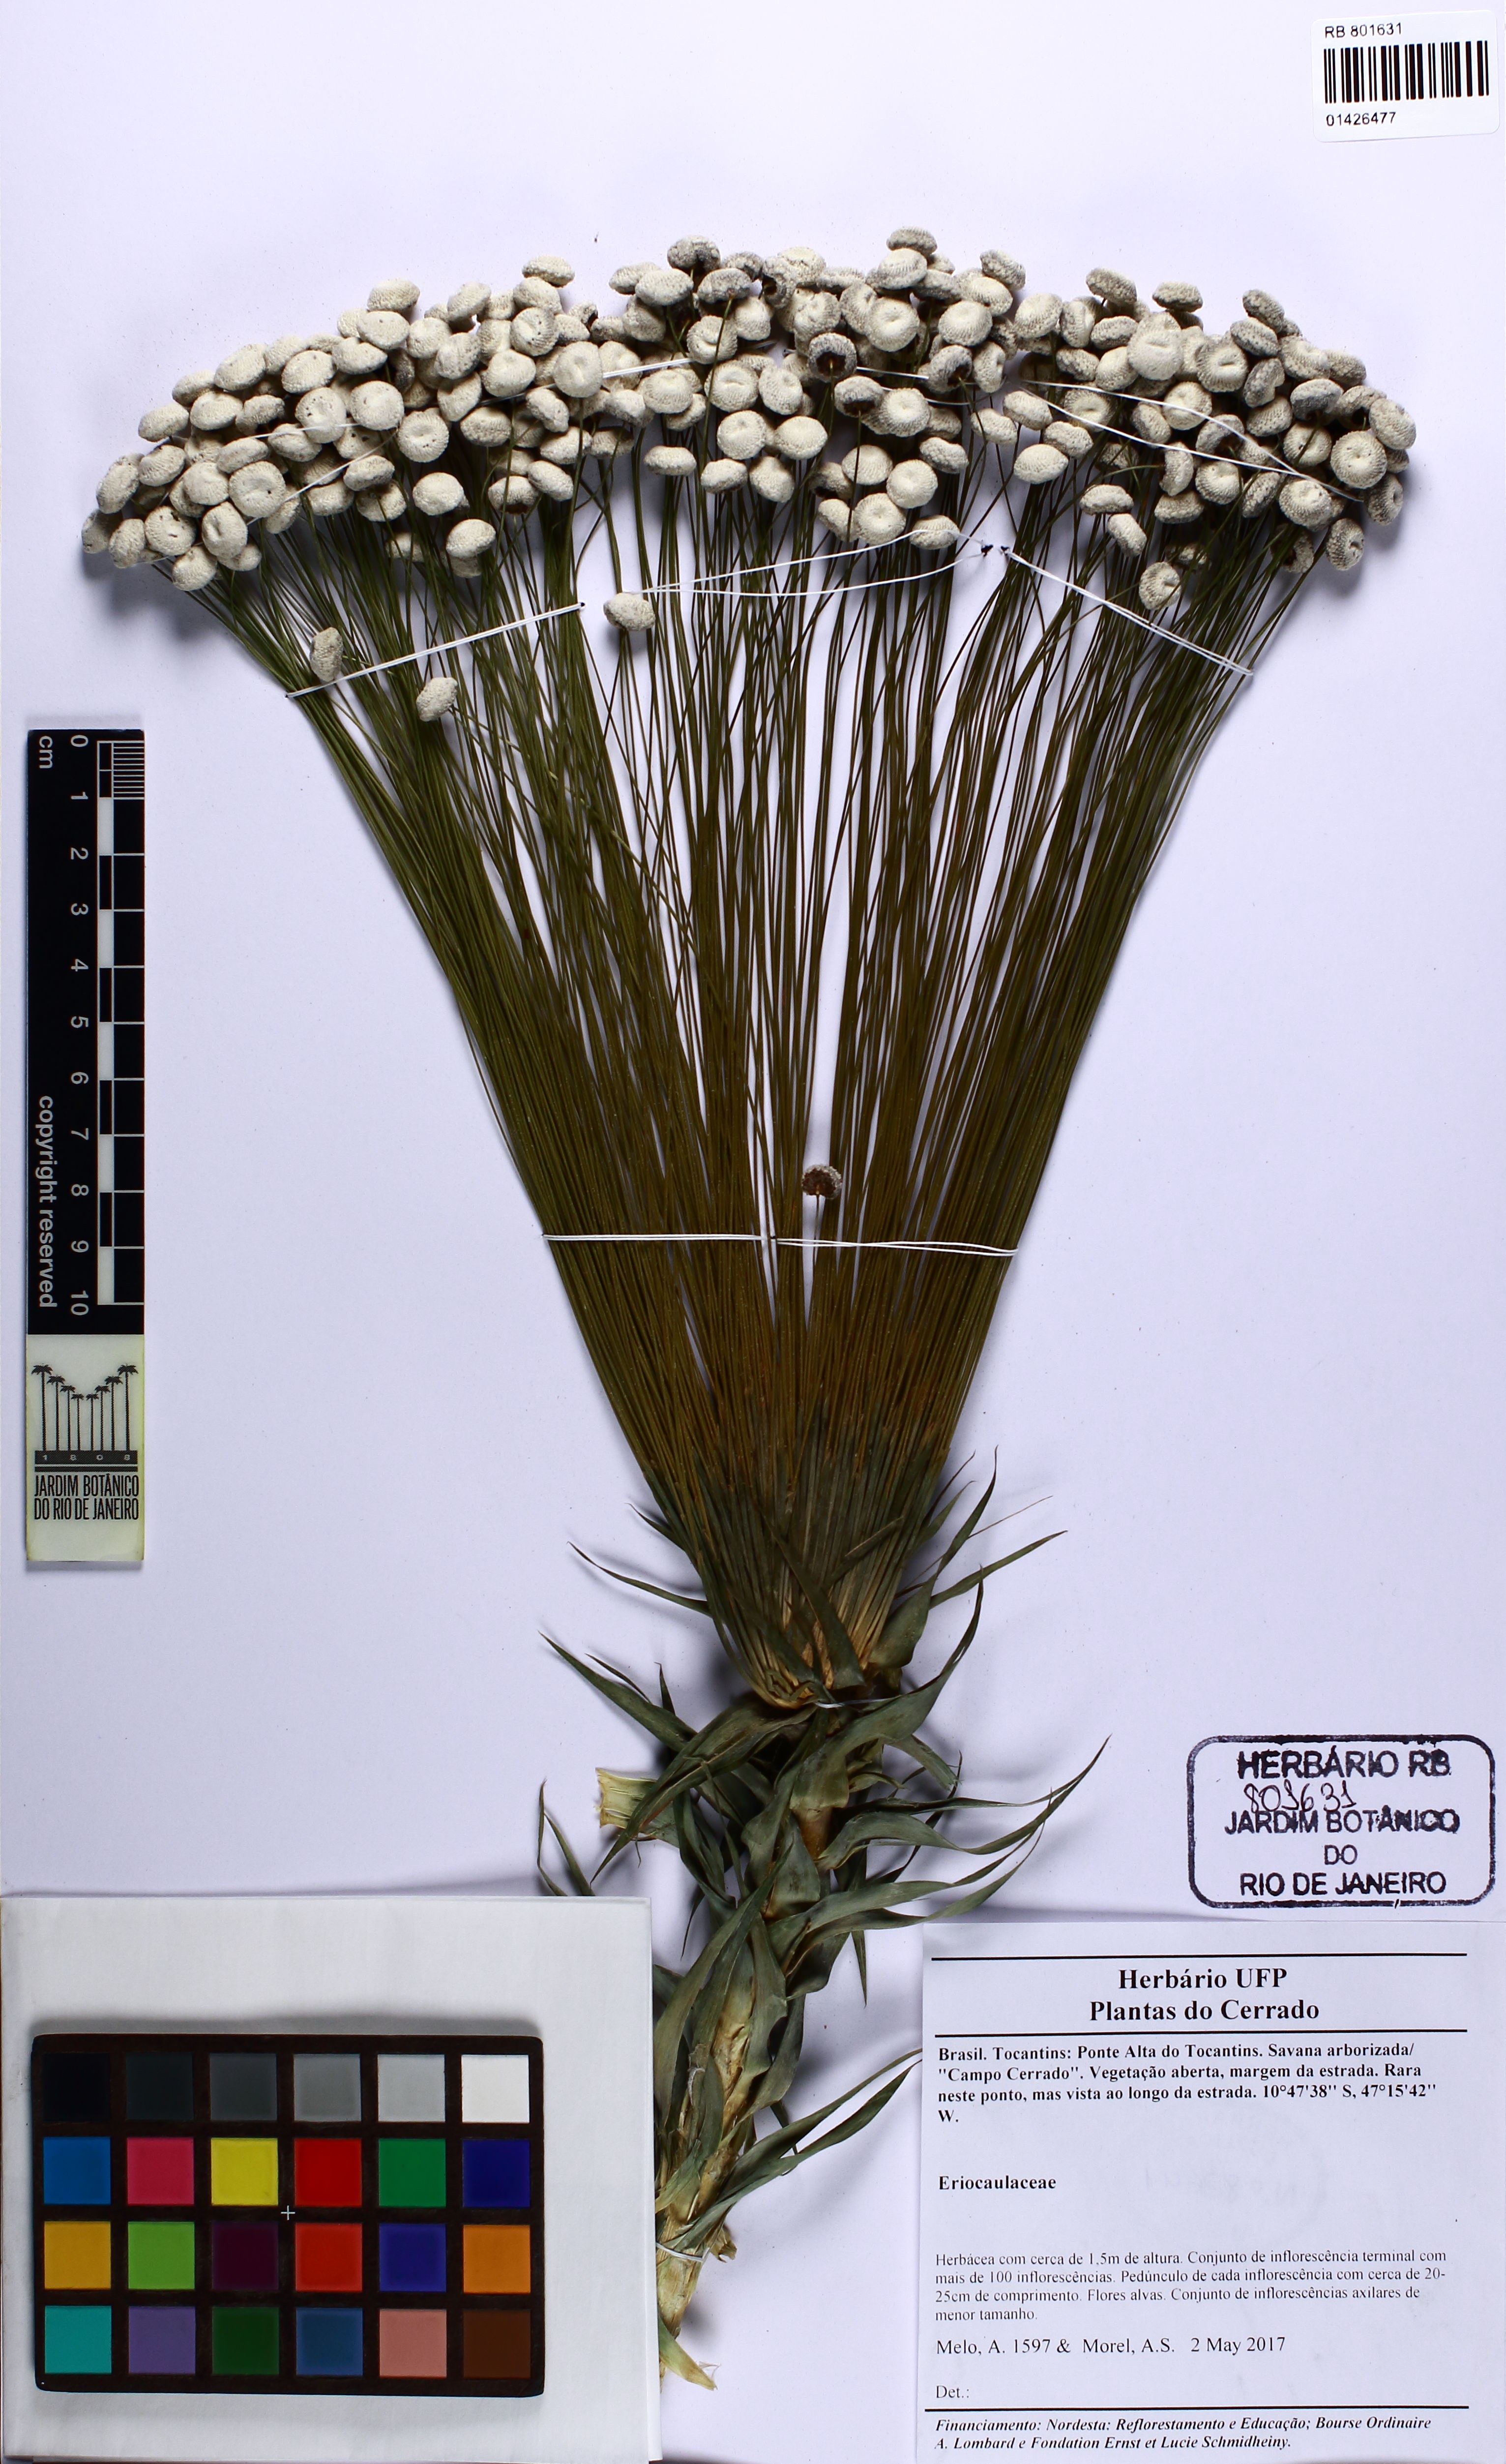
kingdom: Plantae
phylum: Tracheophyta
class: Liliopsida
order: Poales
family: Eriocaulaceae
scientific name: Eriocaulaceae
